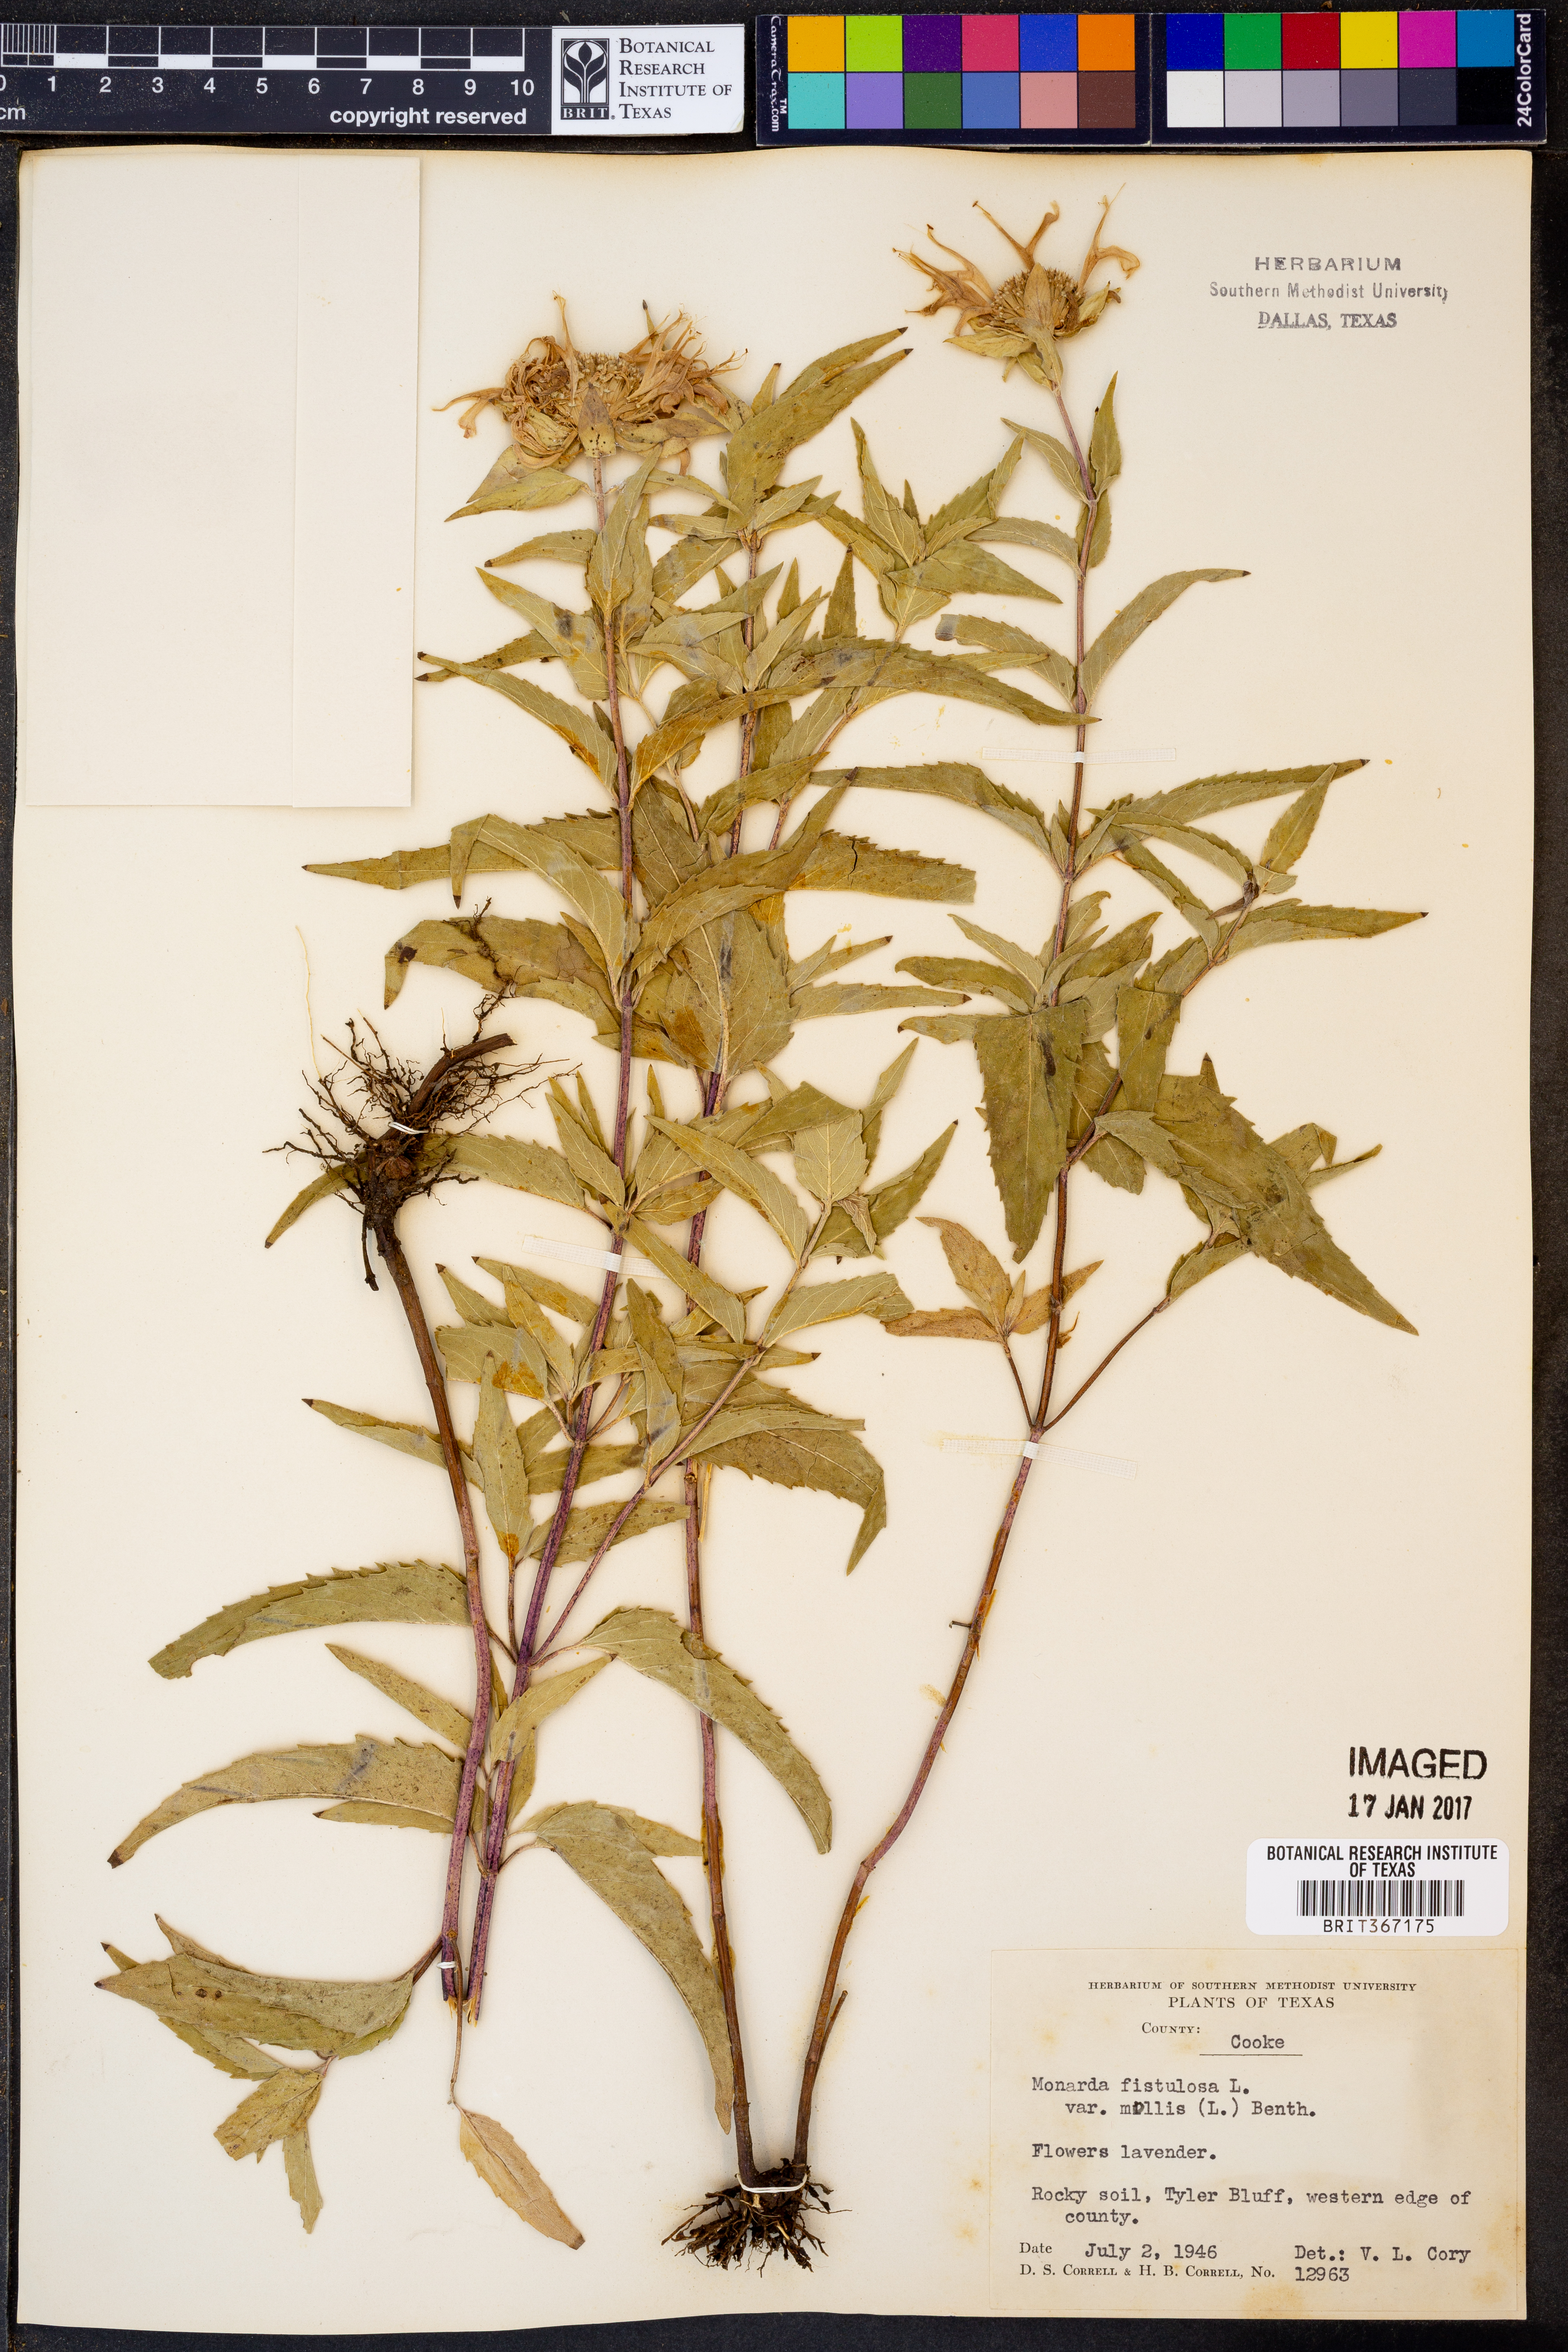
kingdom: Plantae
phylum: Tracheophyta
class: Magnoliopsida
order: Lamiales
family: Lamiaceae
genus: Monarda
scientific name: Monarda fistulosa
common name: Purple beebalm
